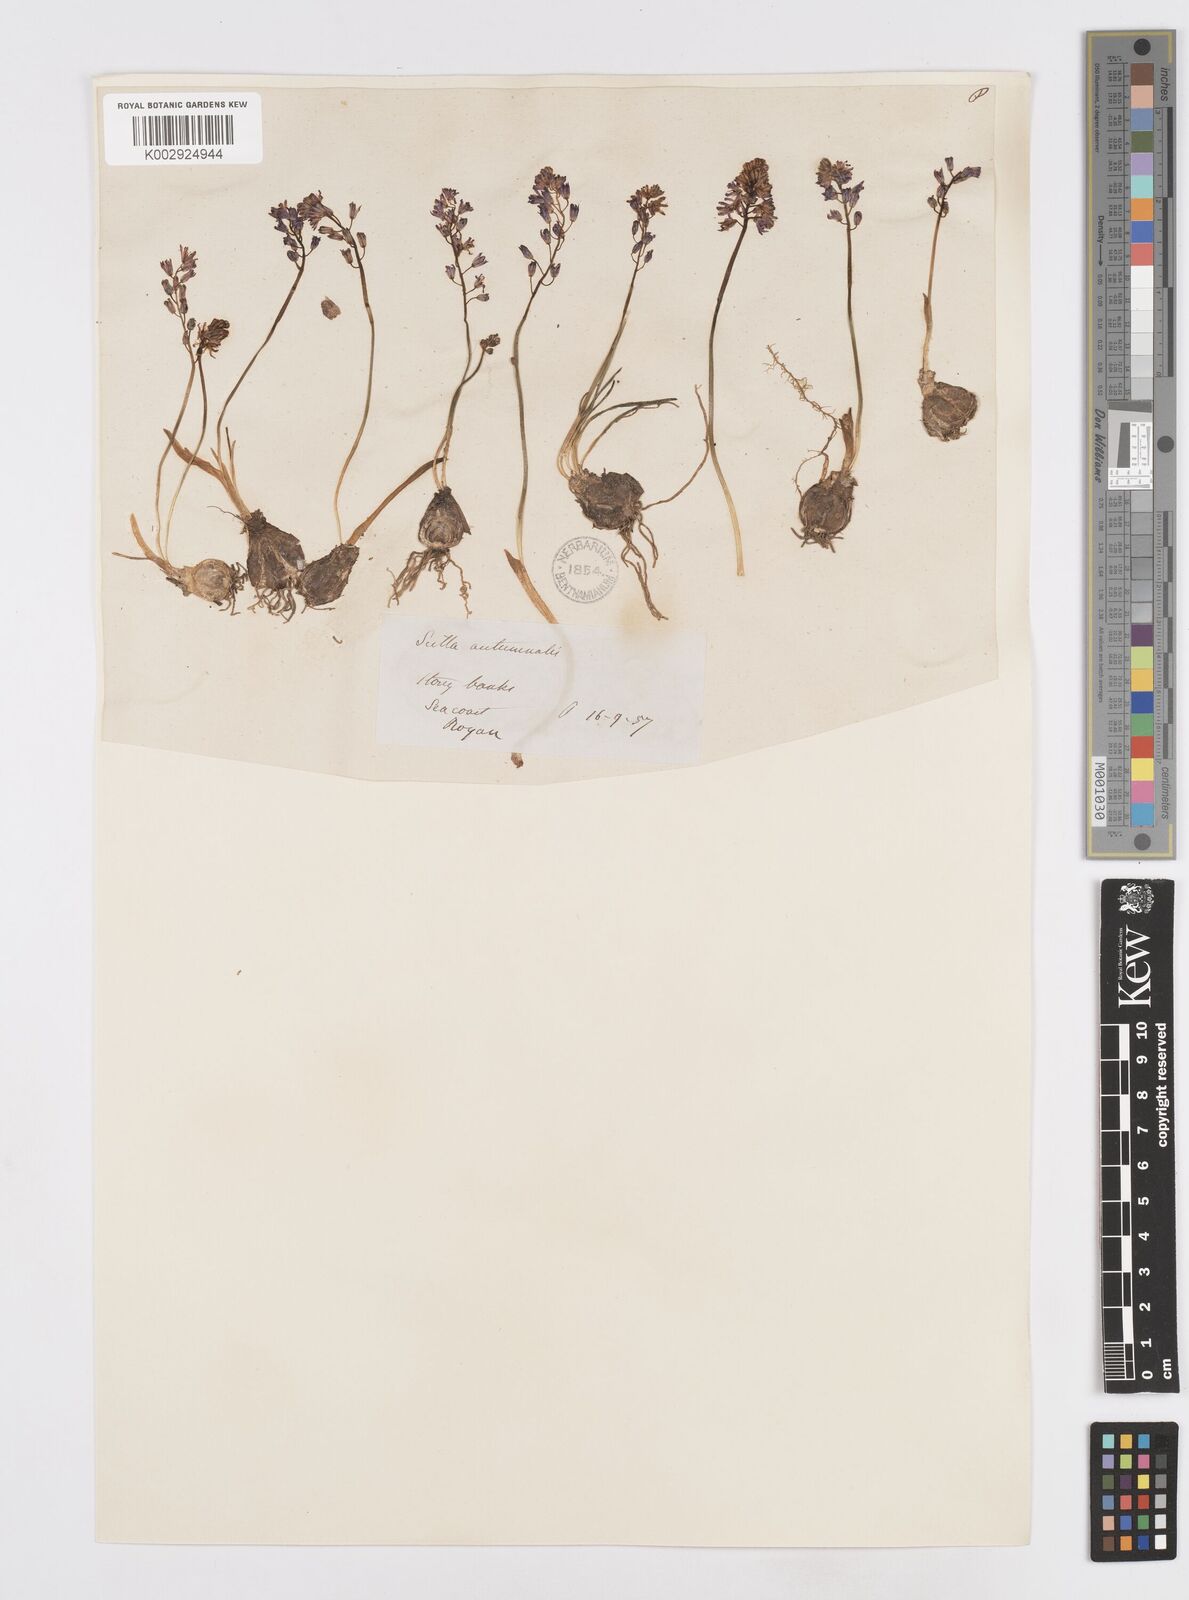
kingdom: Plantae
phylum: Tracheophyta
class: Liliopsida
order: Asparagales
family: Asparagaceae
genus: Prospero
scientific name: Prospero autumnale
